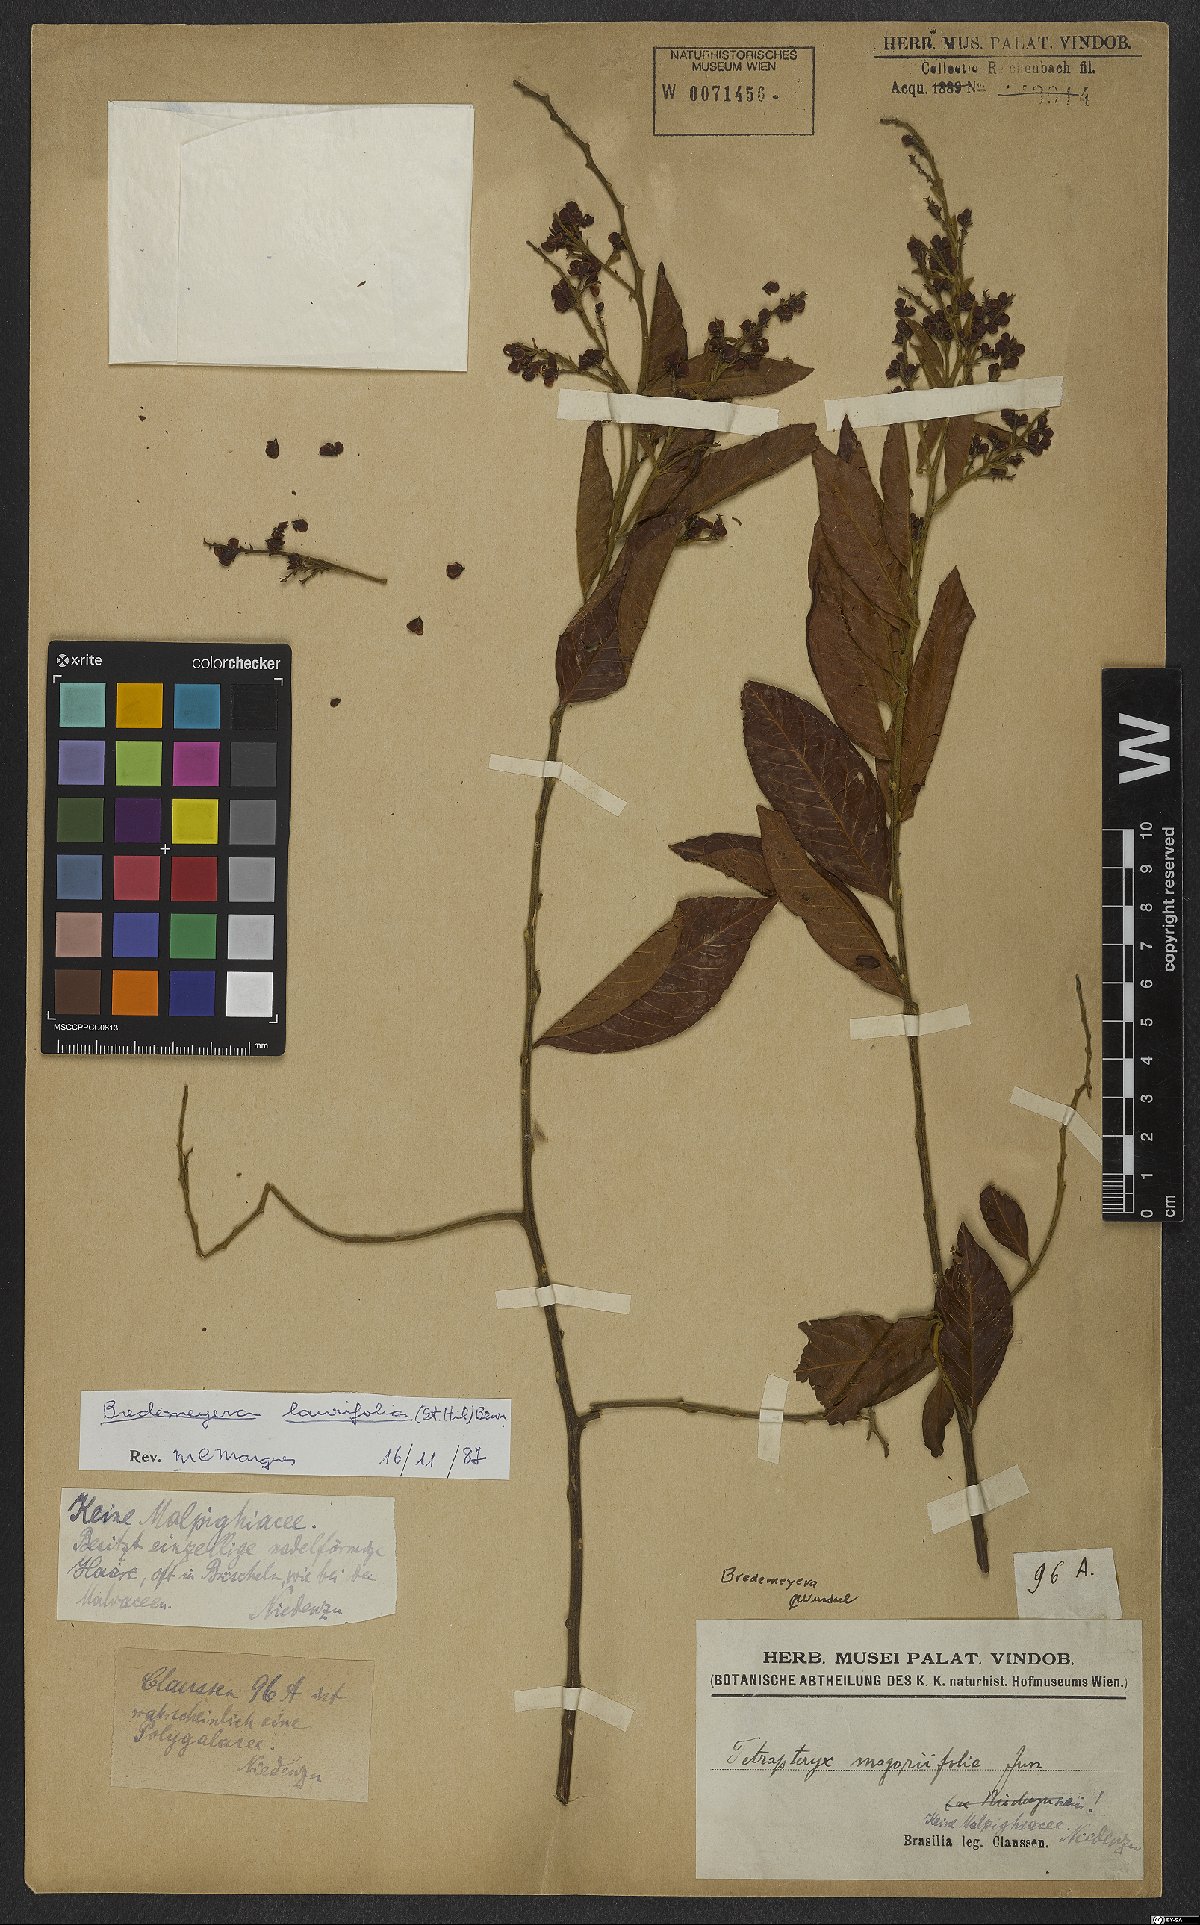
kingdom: Plantae
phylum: Tracheophyta
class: Magnoliopsida
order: Fabales
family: Polygalaceae
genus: Bredemeyera
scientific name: Bredemeyera laurifolia
